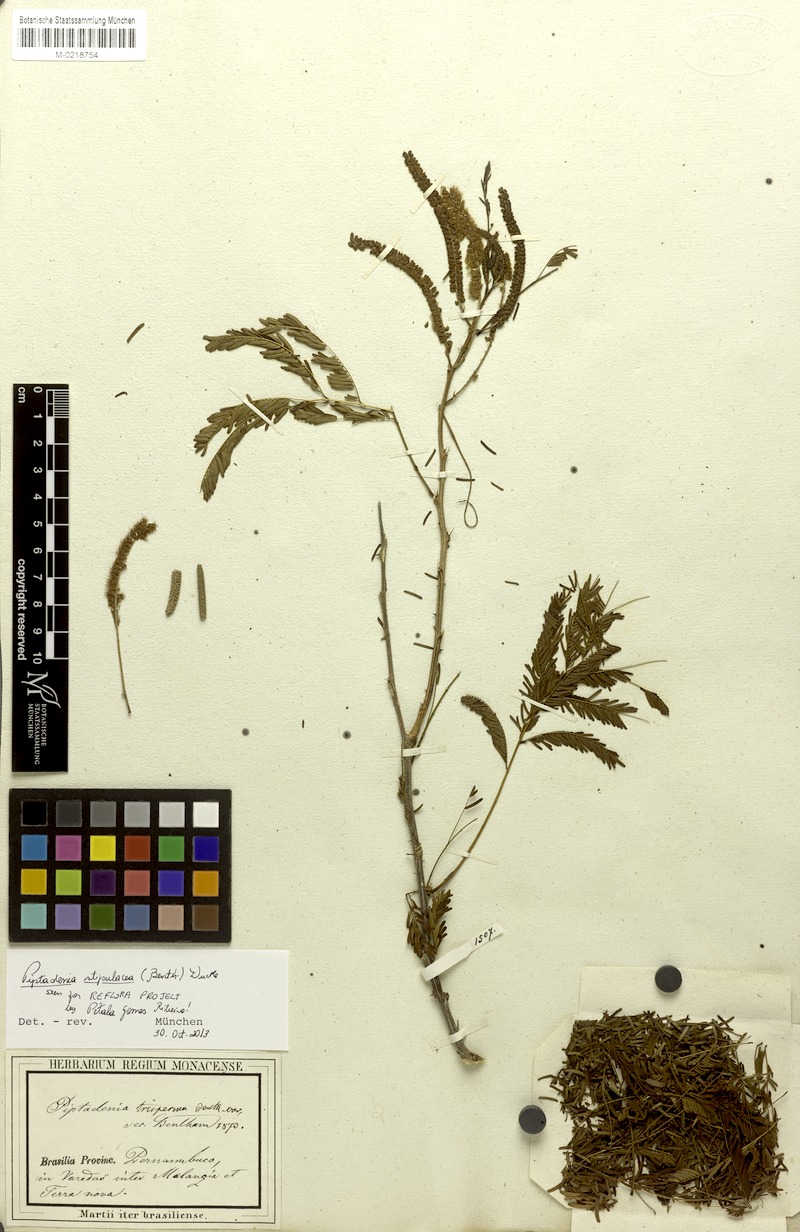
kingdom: Plantae
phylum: Tracheophyta
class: Magnoliopsida
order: Fabales
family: Fabaceae
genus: Piptadenia
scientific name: Piptadenia retusa
